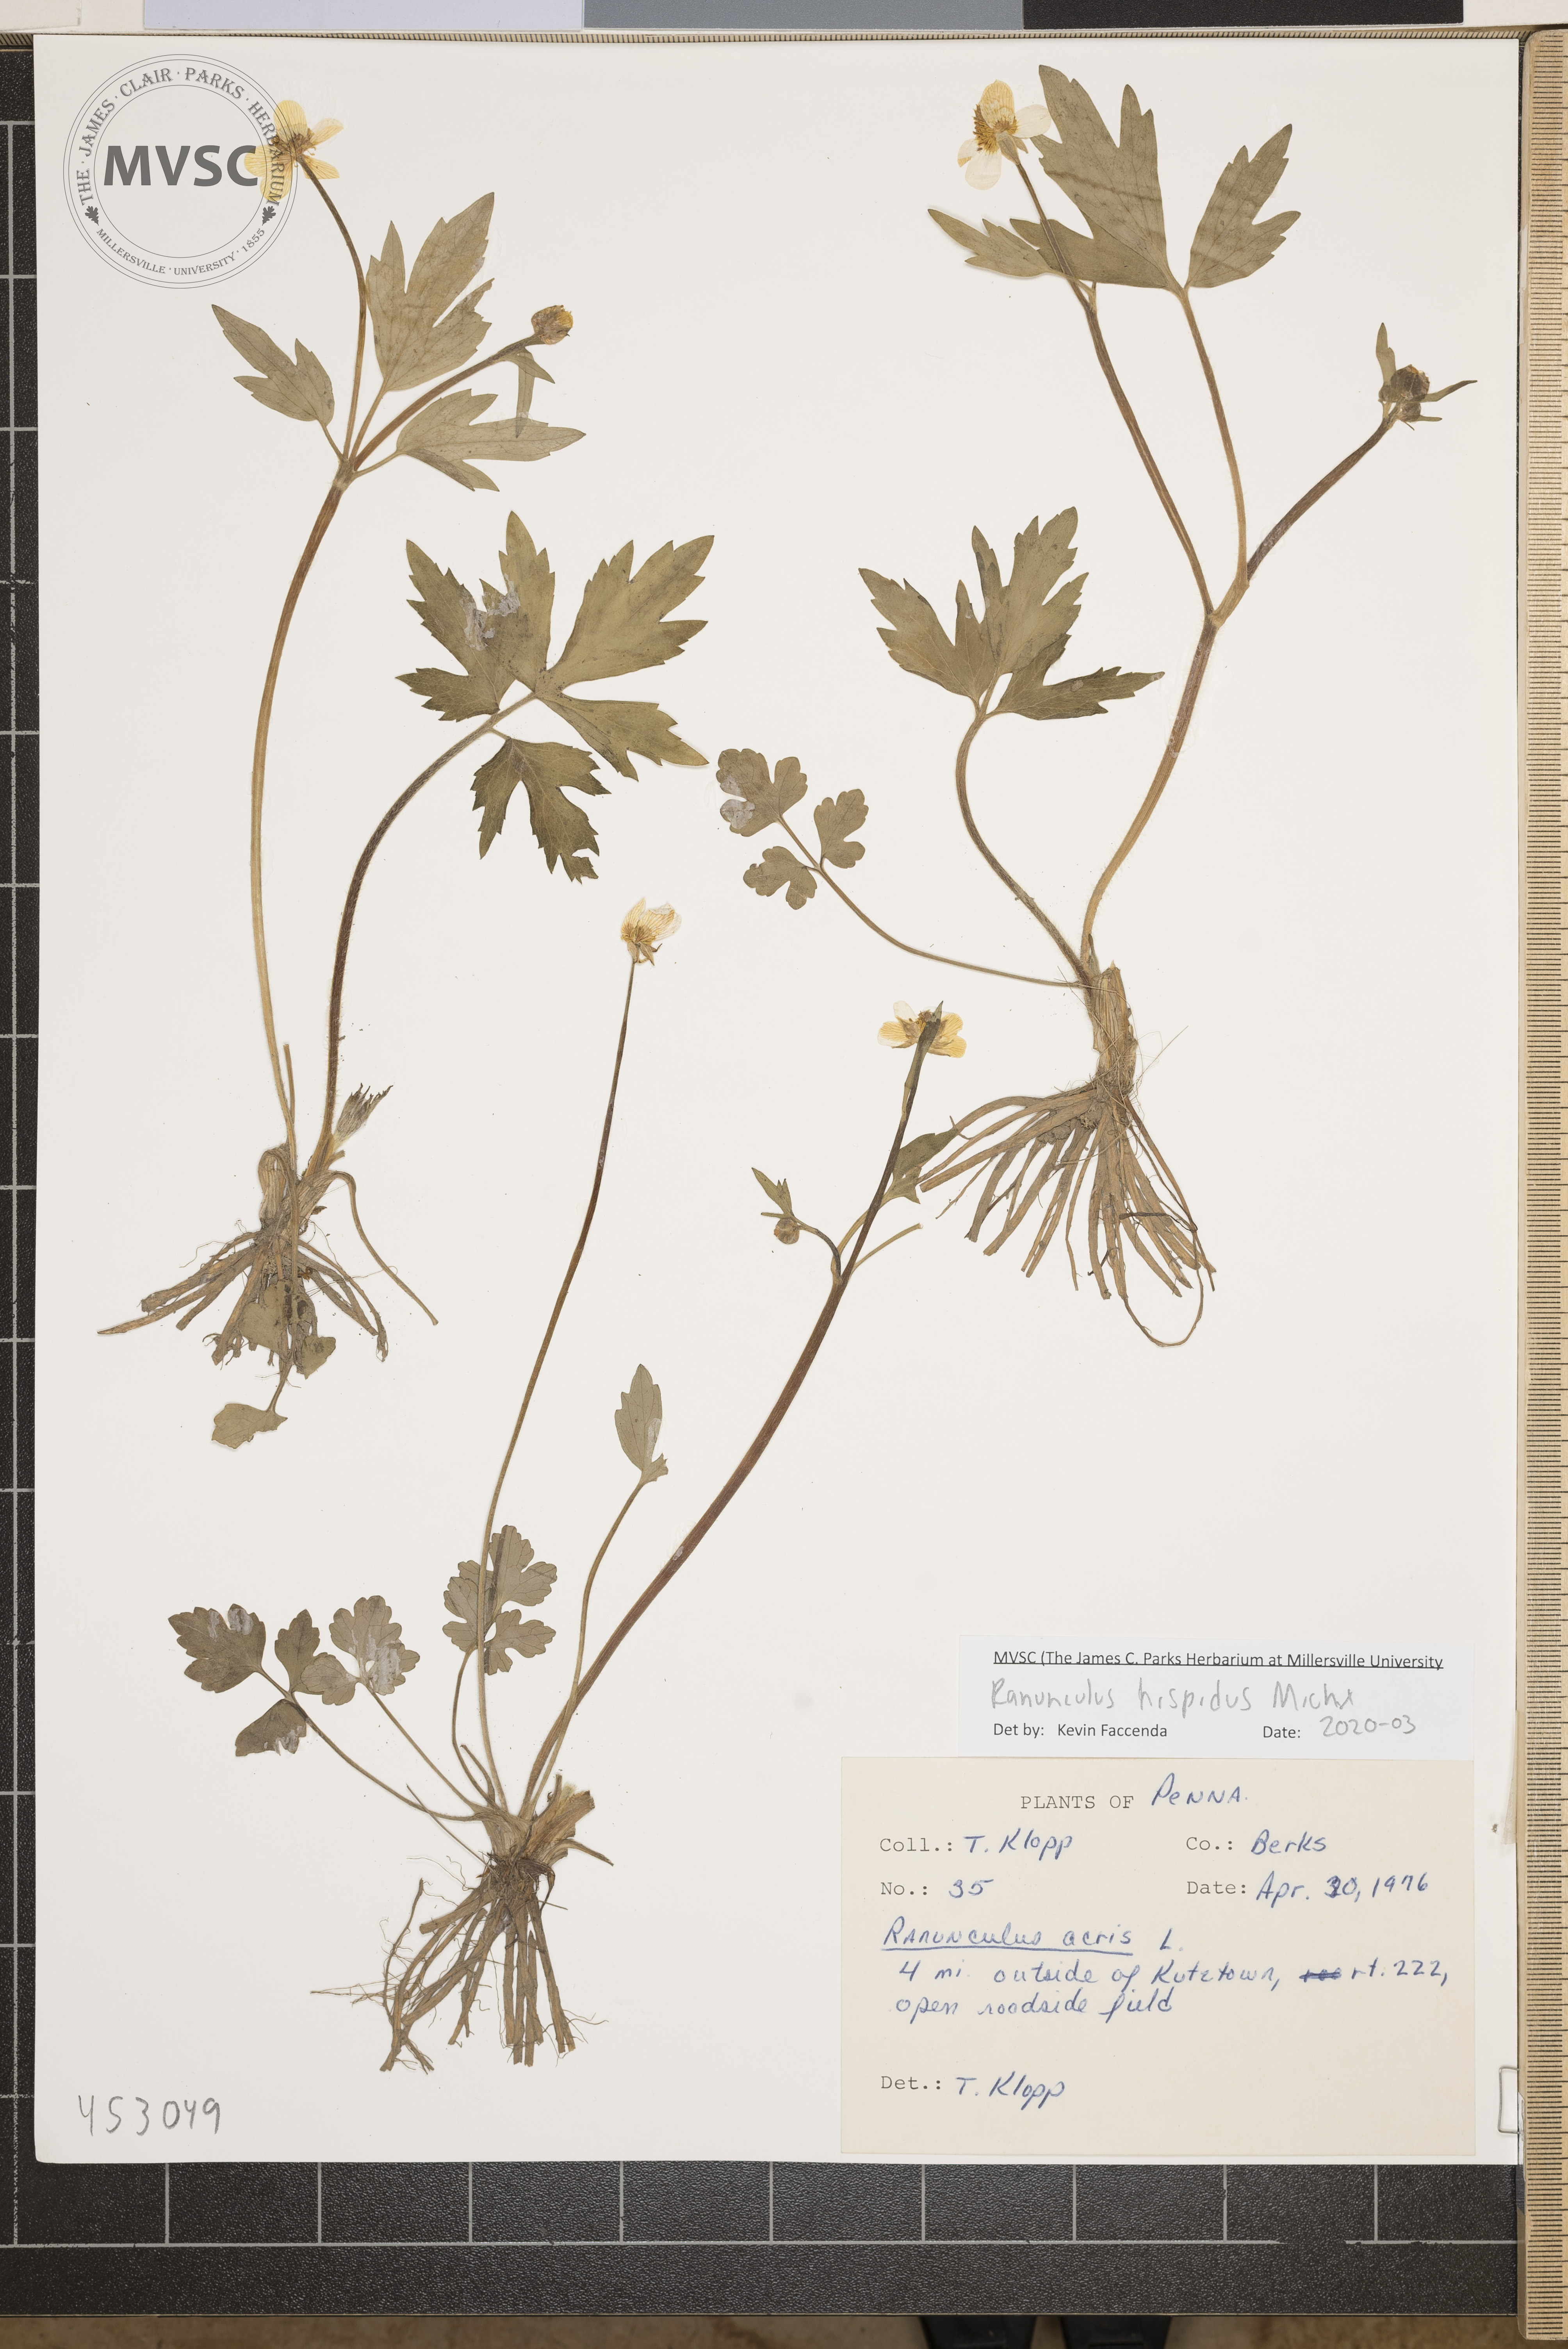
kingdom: Plantae
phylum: Tracheophyta
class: Magnoliopsida
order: Ranunculales
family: Ranunculaceae
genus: Ranunculus
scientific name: Ranunculus hispidus
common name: Bristly buttercup
